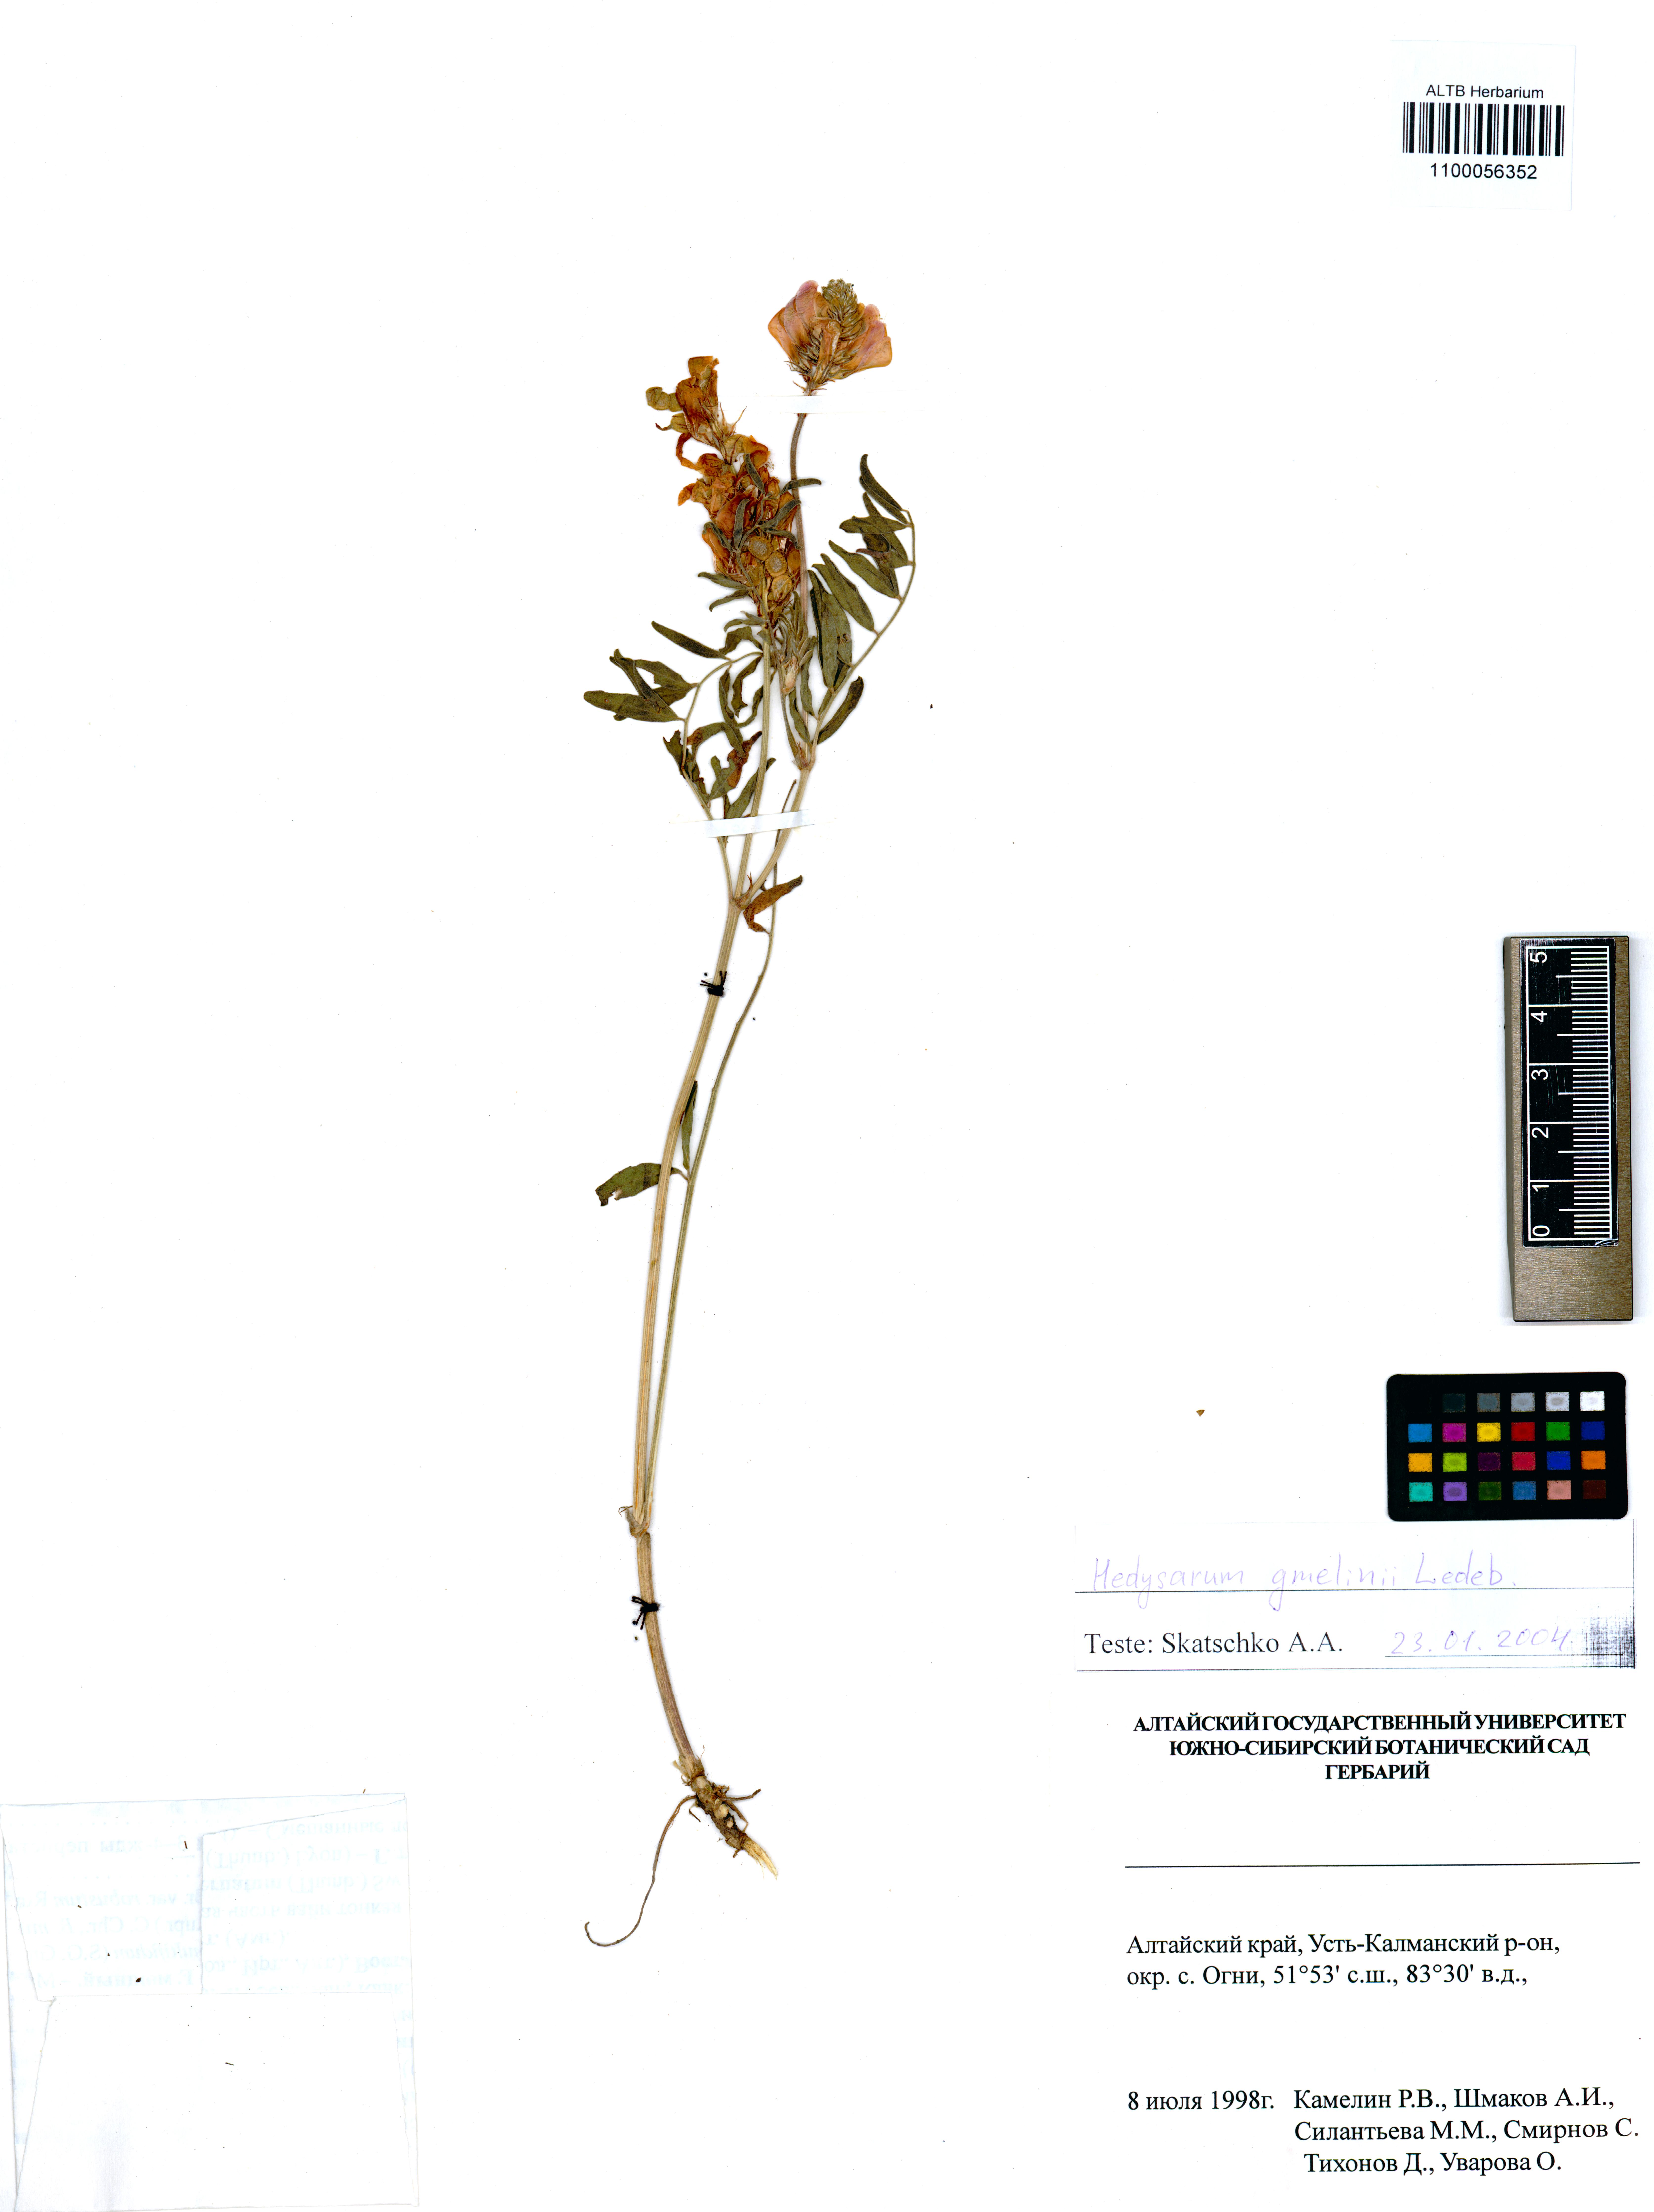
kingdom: Plantae
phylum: Tracheophyta
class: Magnoliopsida
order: Fabales
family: Fabaceae
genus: Hedysarum
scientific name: Hedysarum gmelinii
